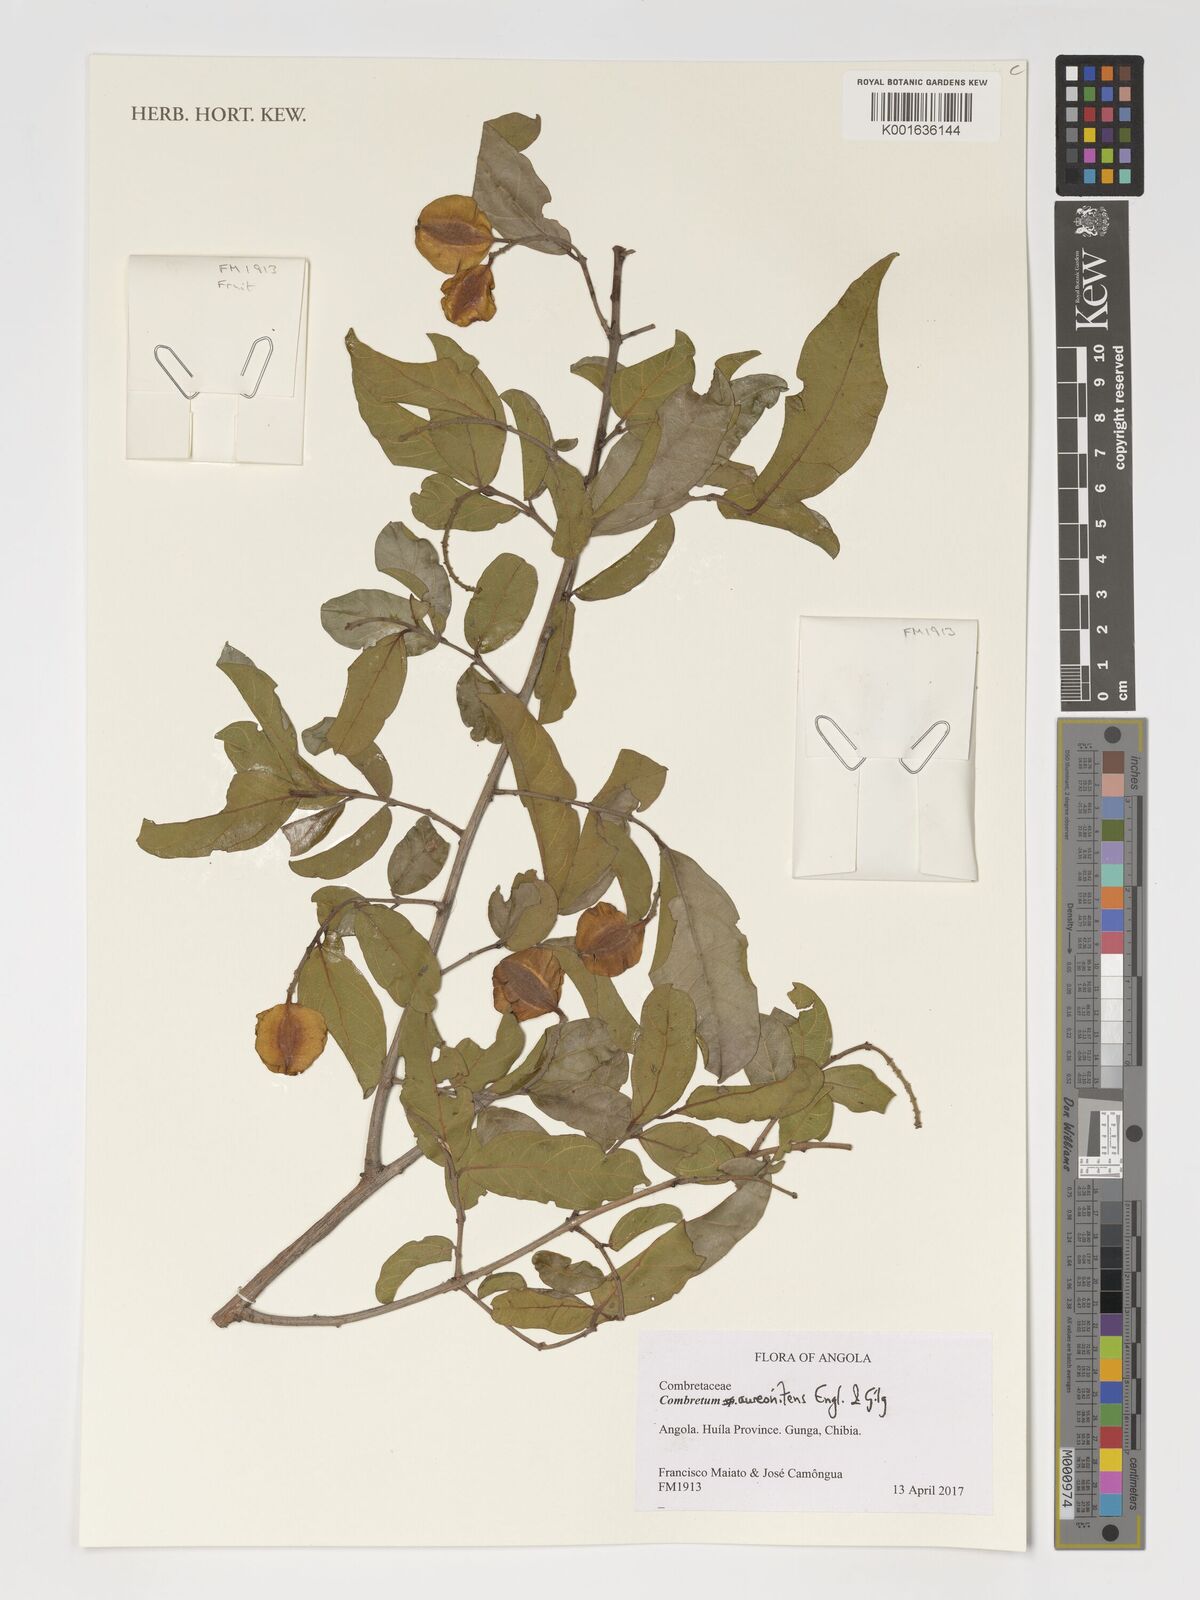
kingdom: Plantae
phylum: Tracheophyta
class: Magnoliopsida
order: Myrtales
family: Combretaceae
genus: Combretum
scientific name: Combretum aureonitens
